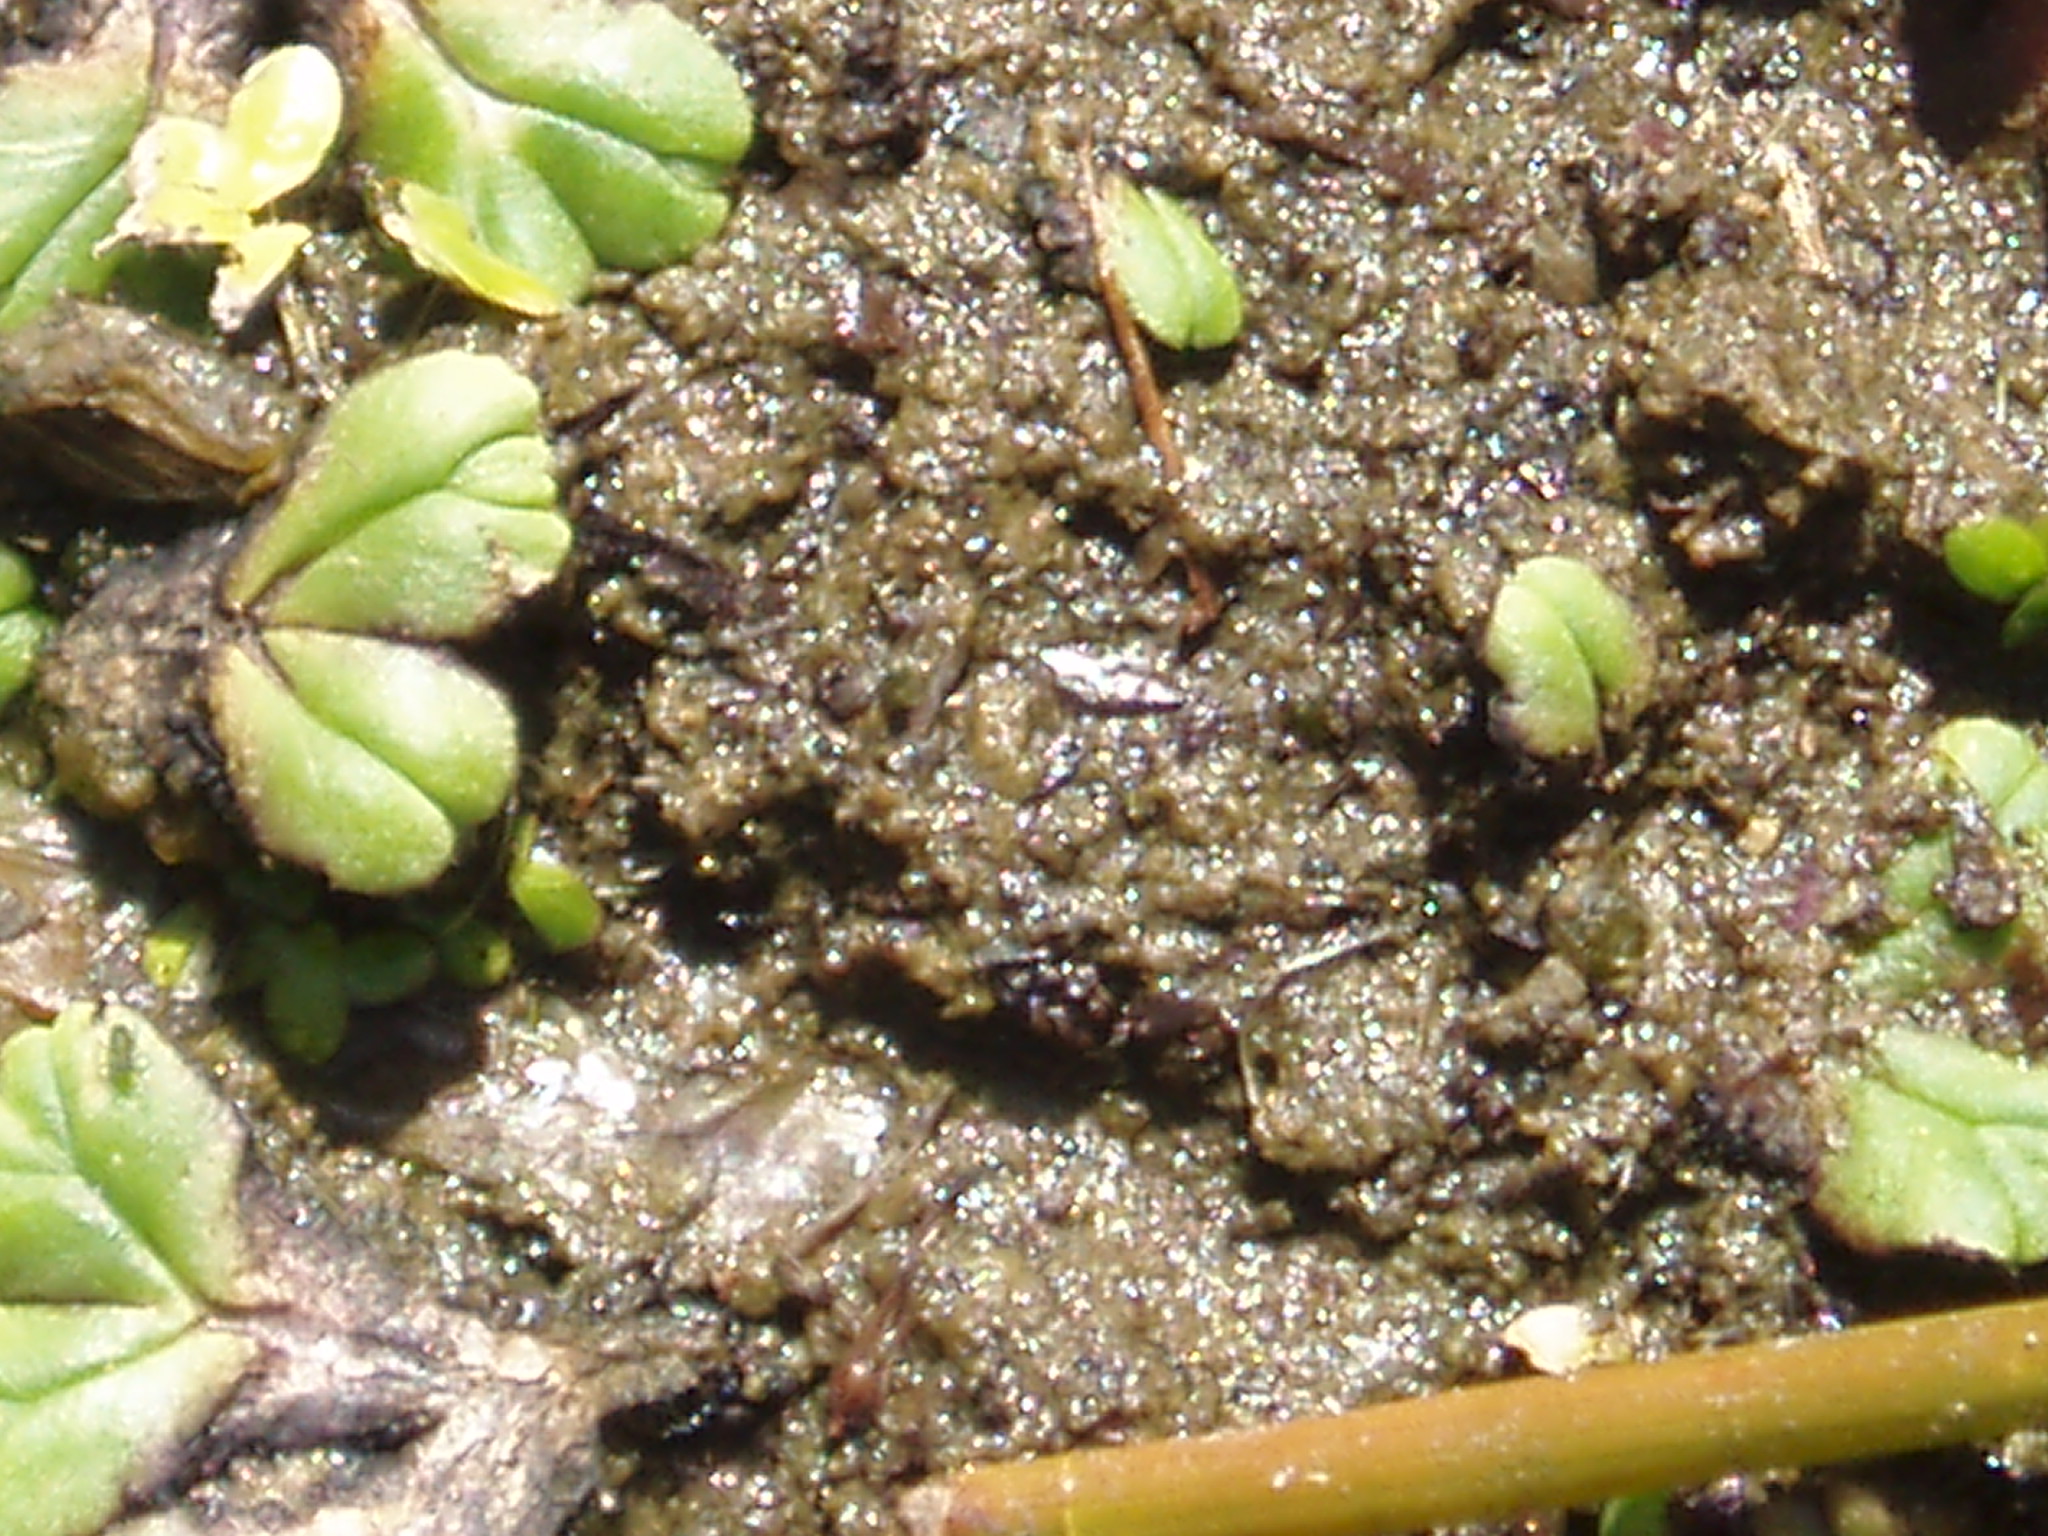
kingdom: Plantae
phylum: Marchantiophyta
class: Marchantiopsida
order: Marchantiales
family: Ricciaceae
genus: Ricciocarpos
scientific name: Ricciocarpos natans
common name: Purple-fringed liverwort
